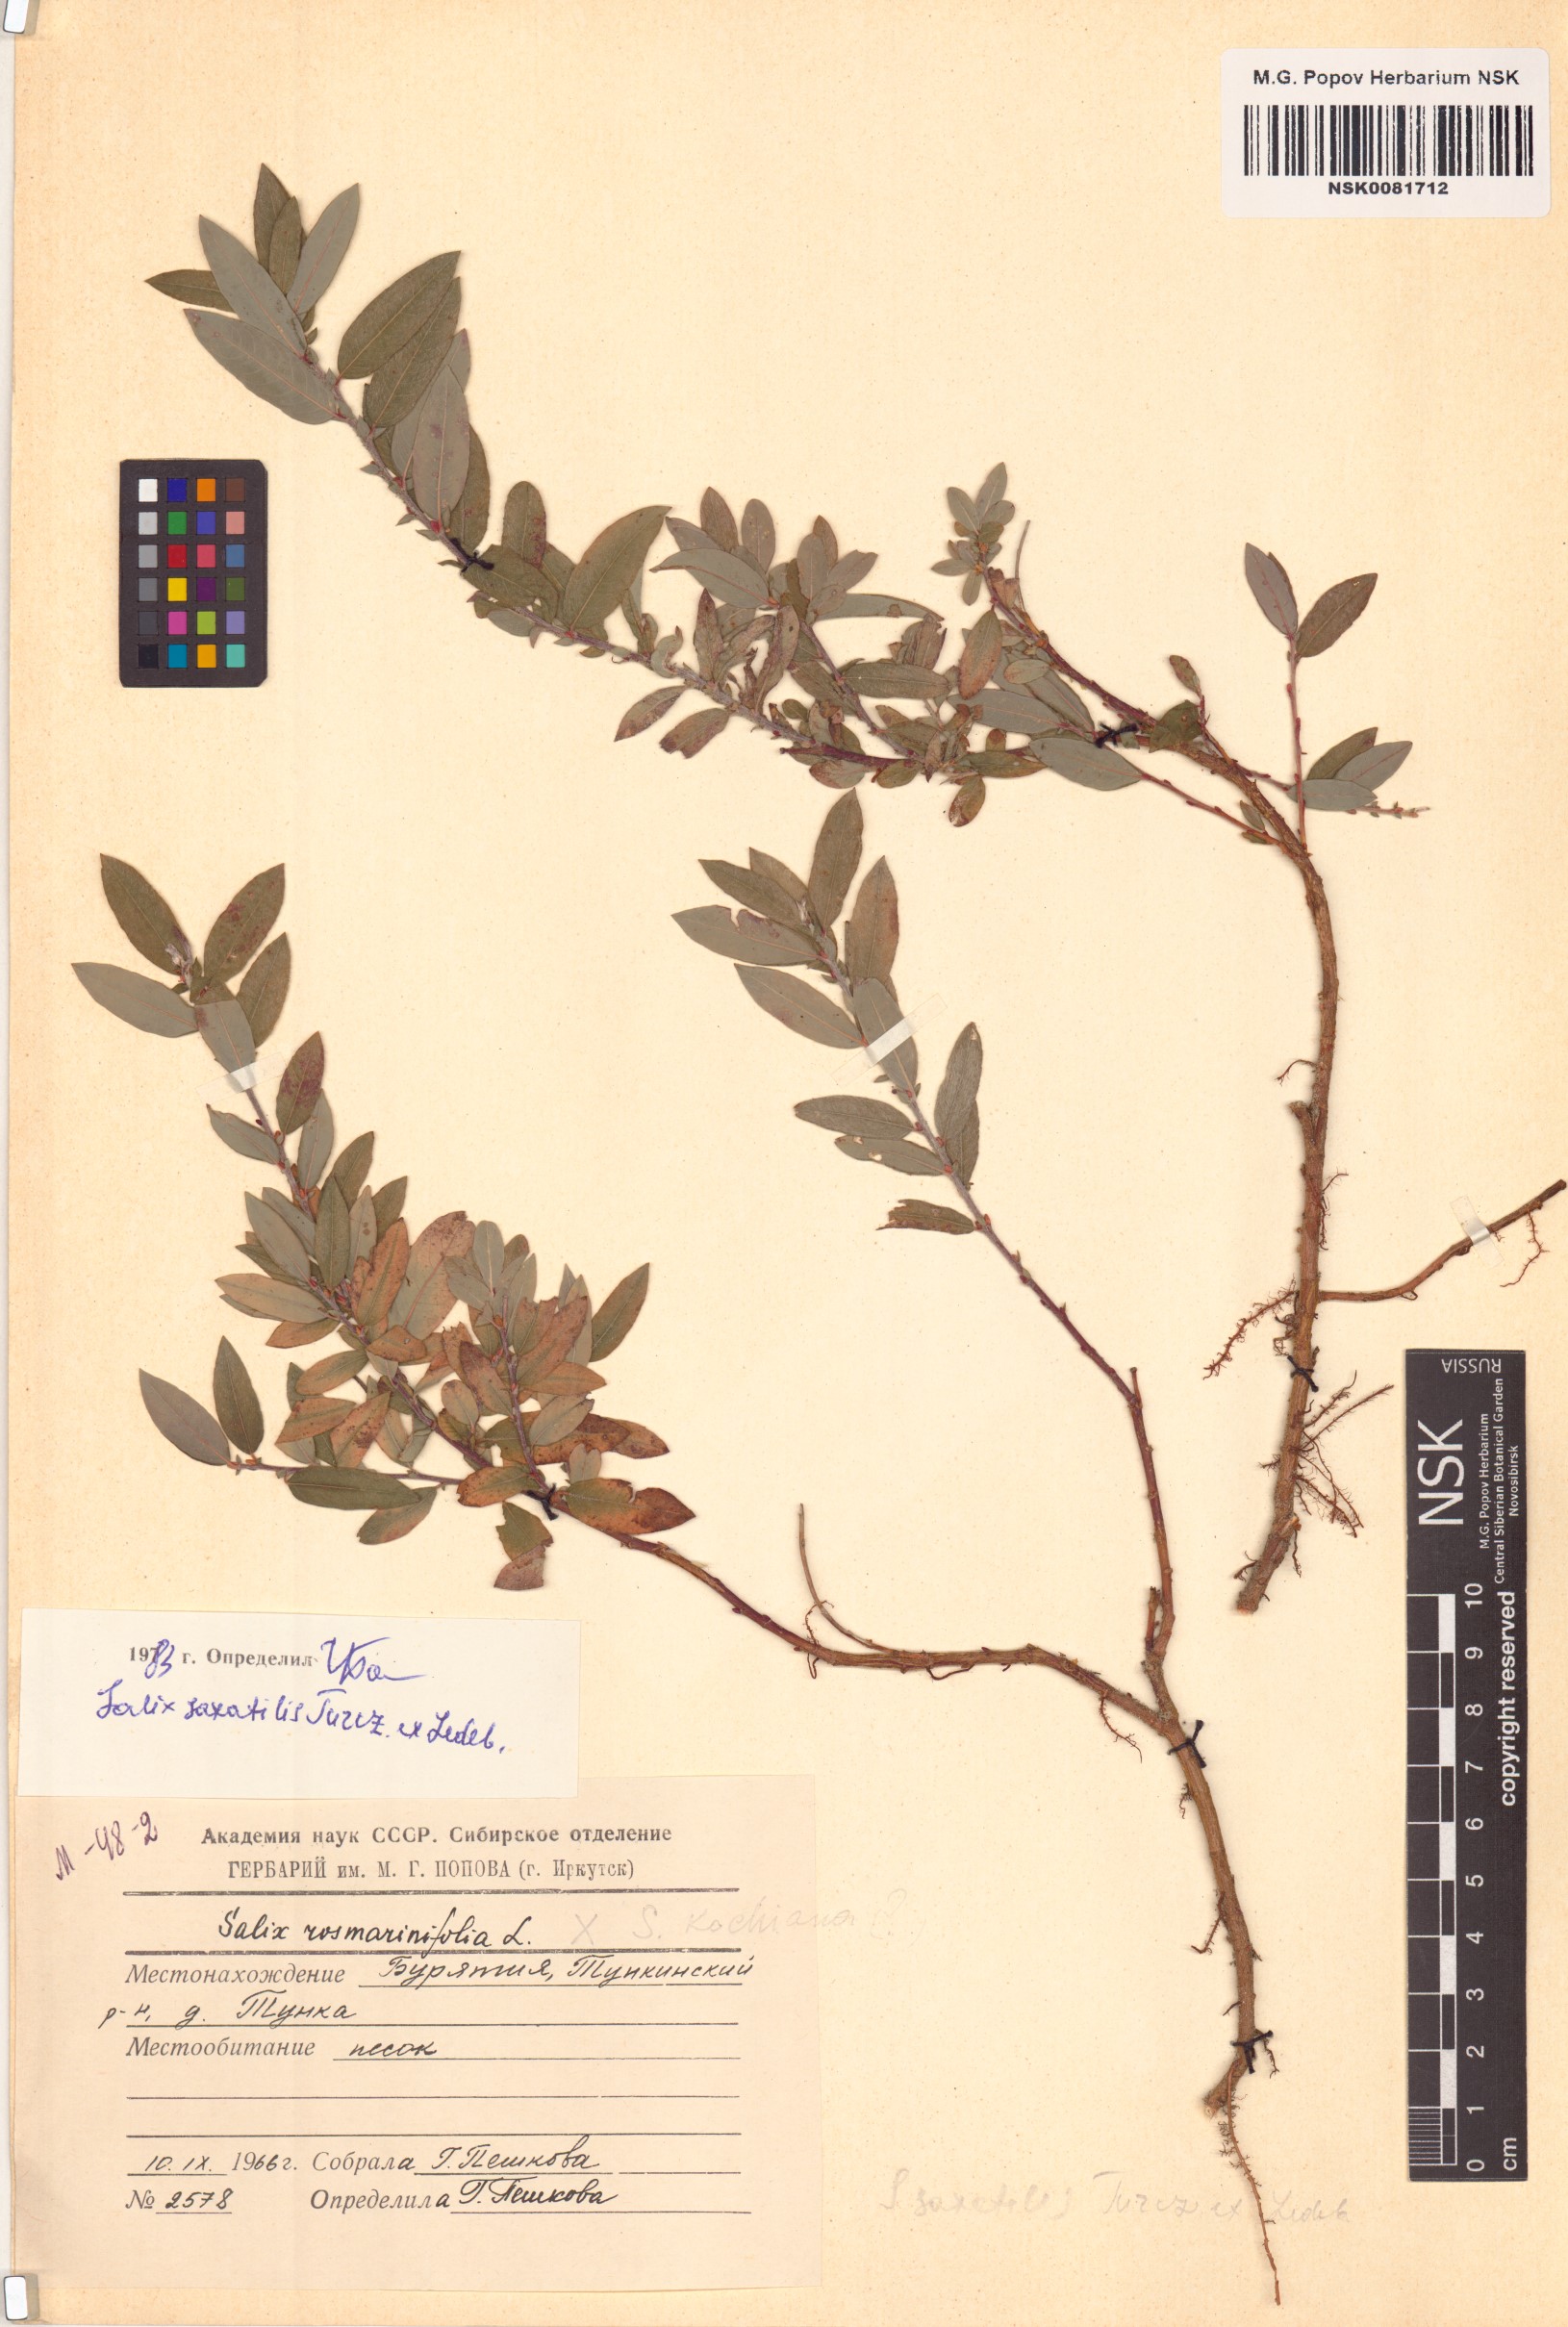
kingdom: Plantae
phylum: Tracheophyta
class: Magnoliopsida
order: Malpighiales
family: Salicaceae
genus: Salix
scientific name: Salix saxatilis
